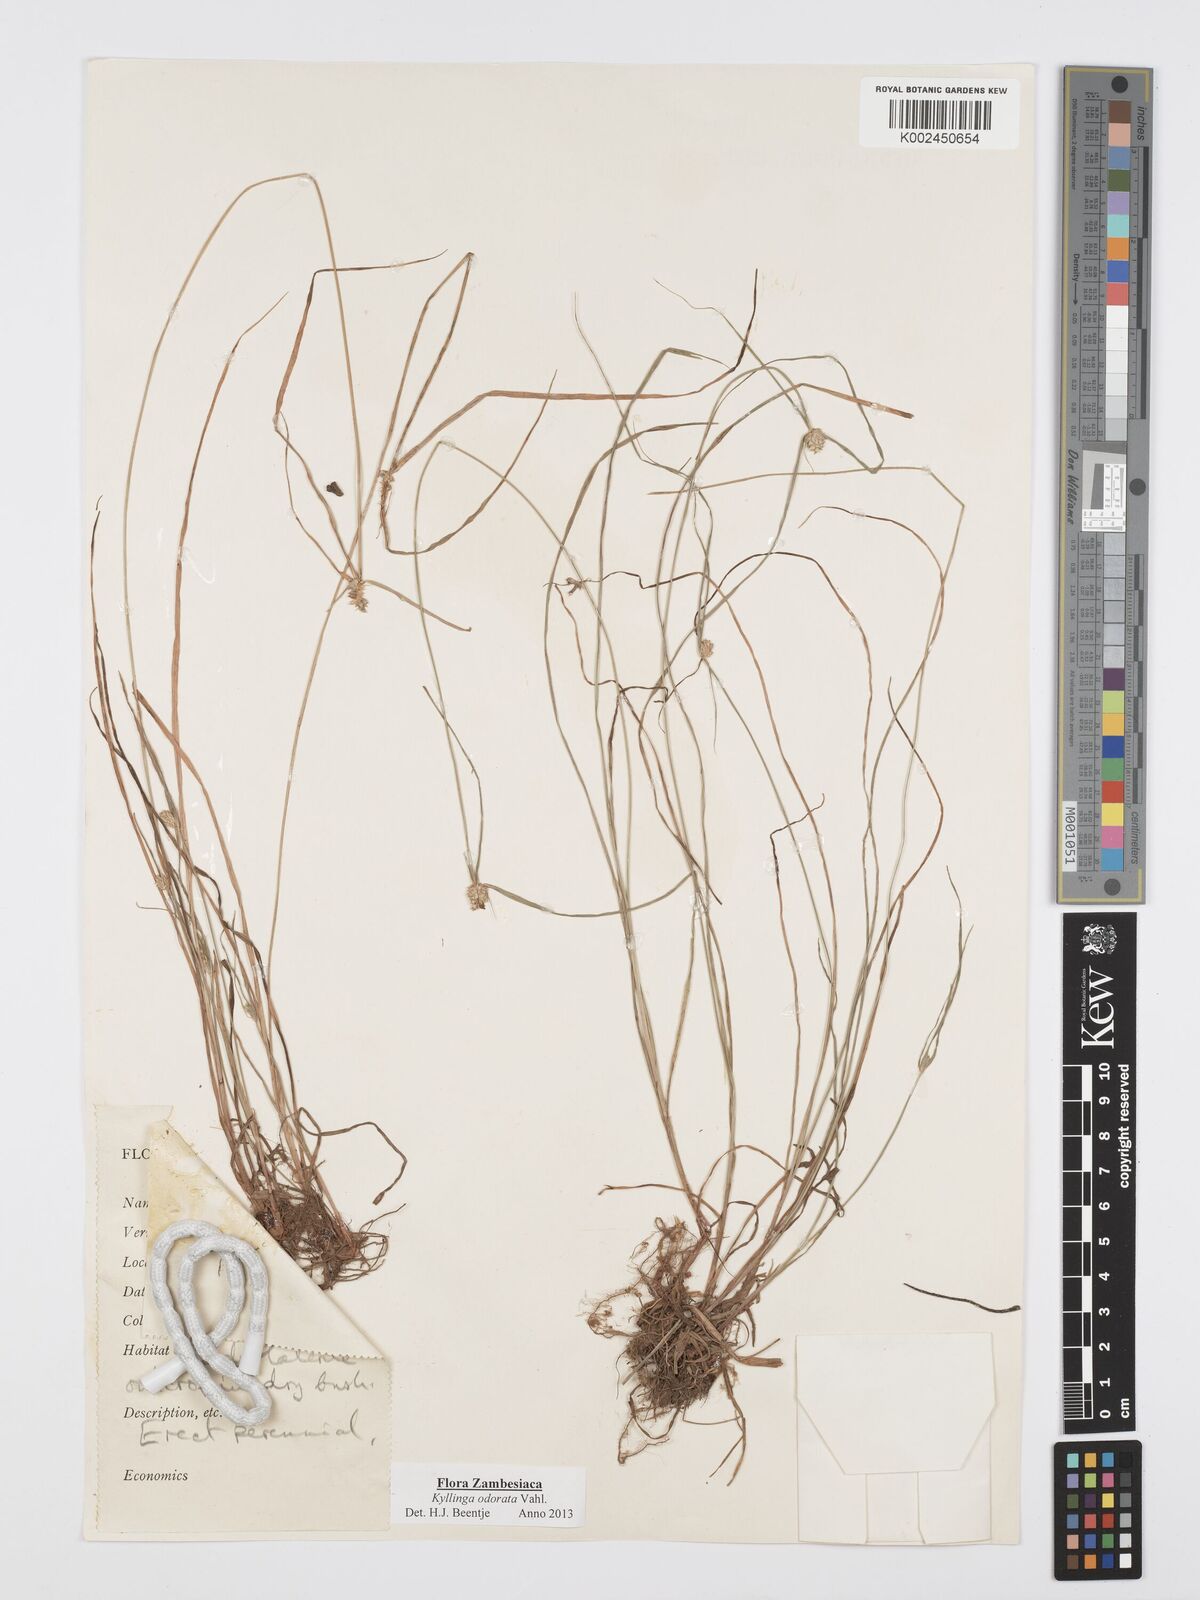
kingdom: Plantae
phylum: Tracheophyta
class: Liliopsida
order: Poales
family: Cyperaceae
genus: Cyperus
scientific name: Cyperus
